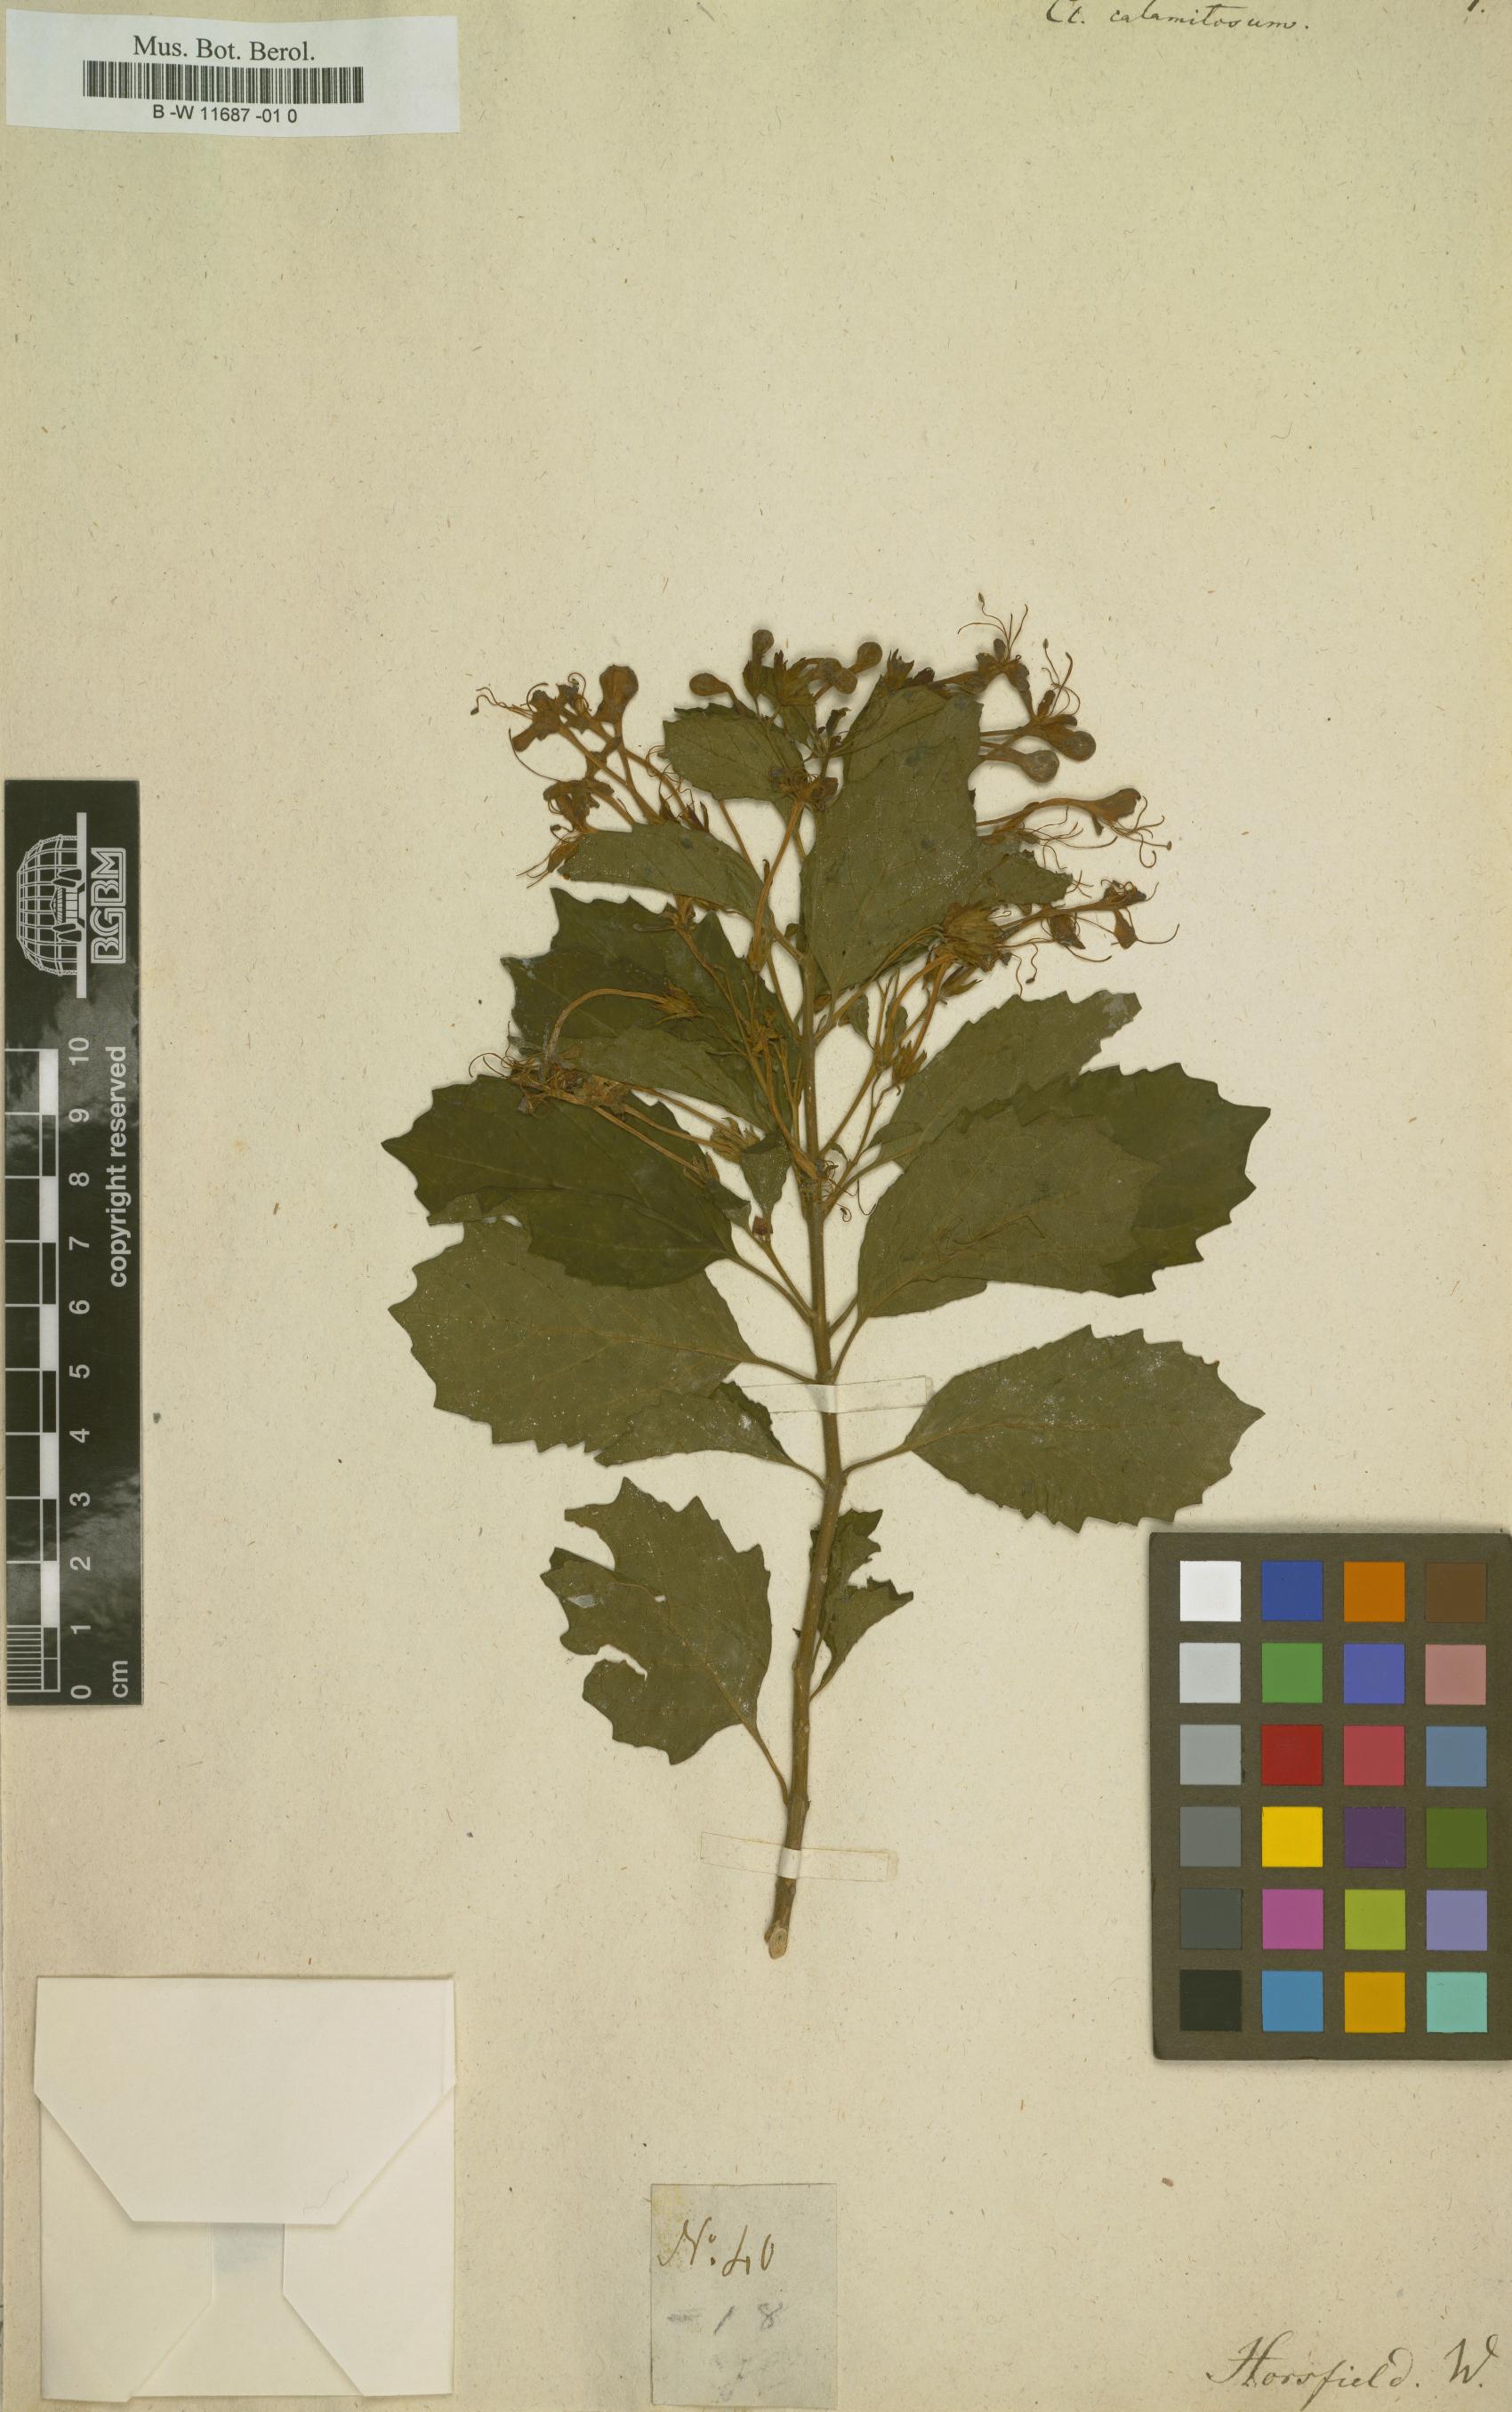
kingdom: Plantae
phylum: Tracheophyta
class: Magnoliopsida
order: Lamiales
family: Lamiaceae
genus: Clerodendrum
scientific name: Clerodendrum calamitosum
